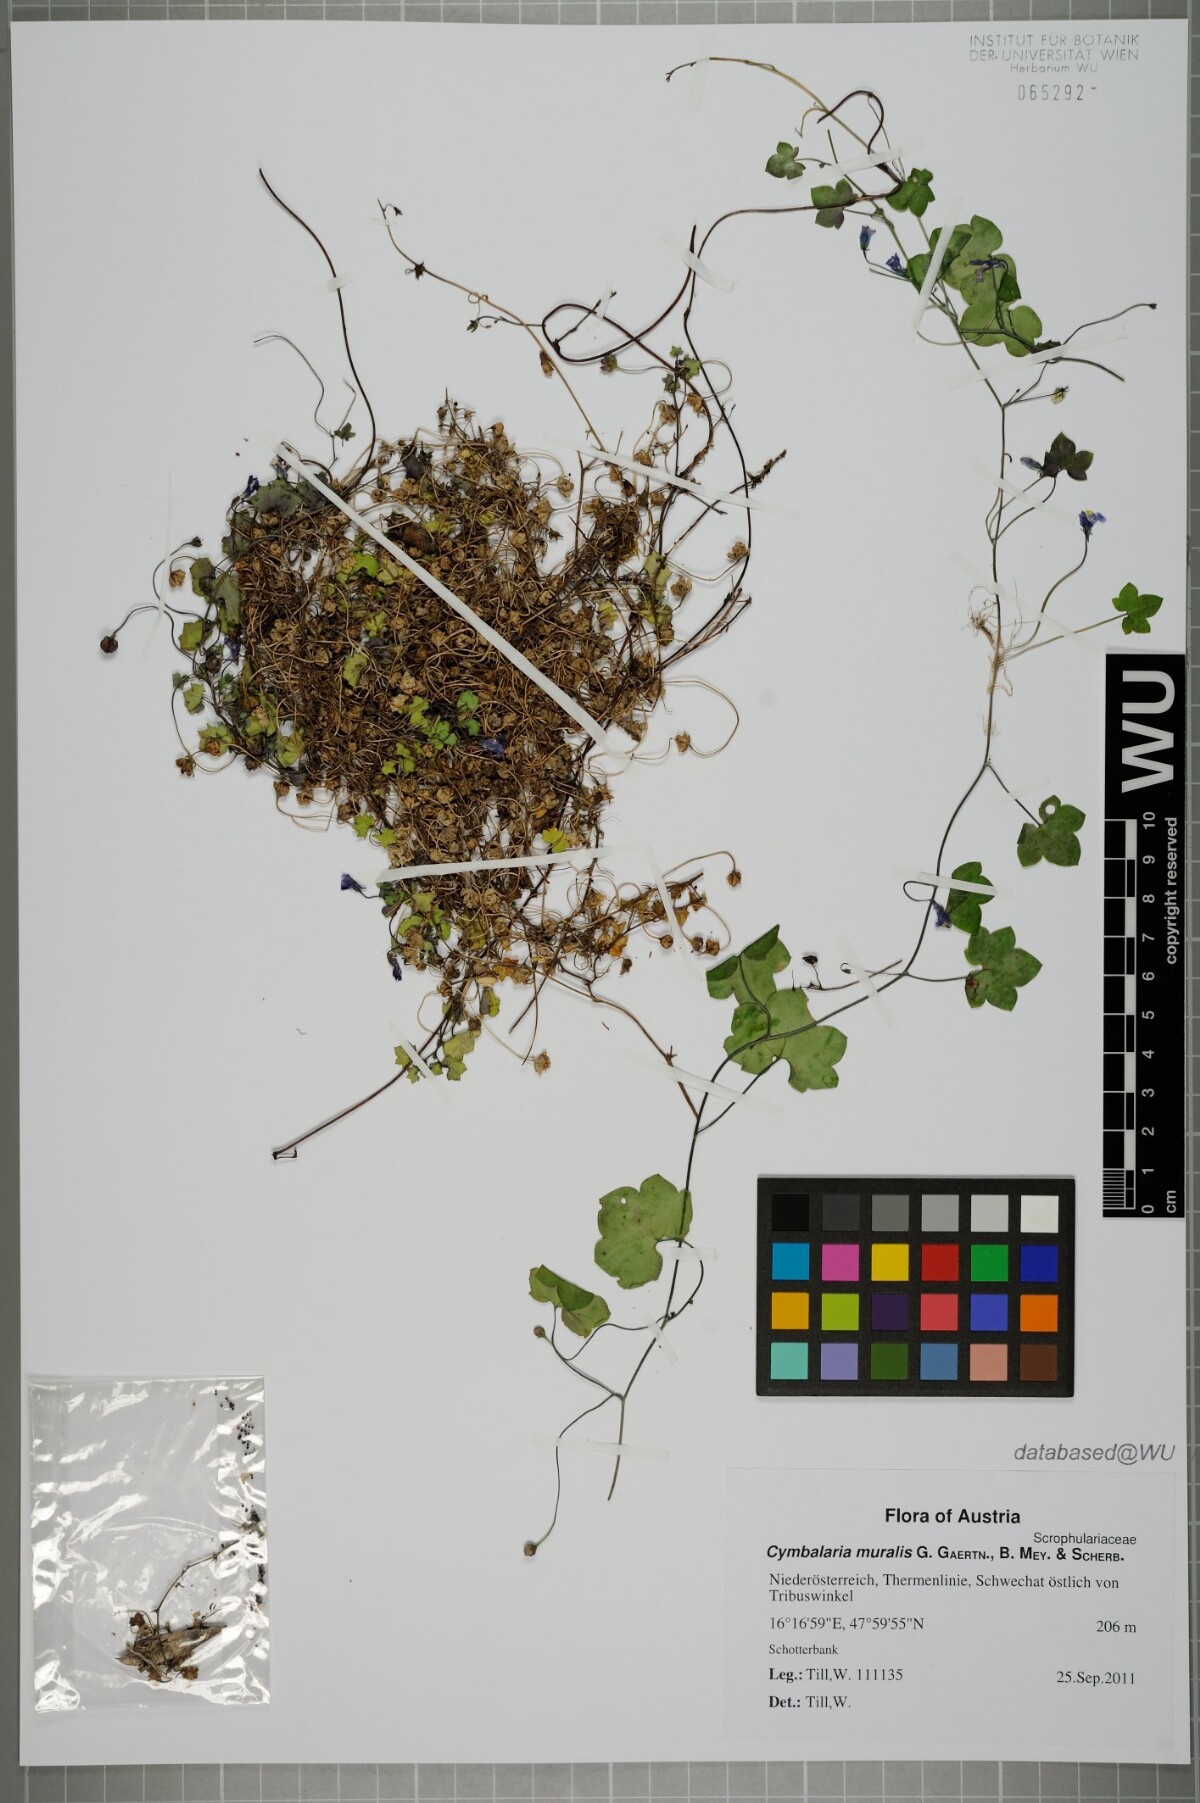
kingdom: Plantae
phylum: Tracheophyta
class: Magnoliopsida
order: Lamiales
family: Plantaginaceae
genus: Cymbalaria
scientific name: Cymbalaria muralis
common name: Ivy-leaved toadflax
